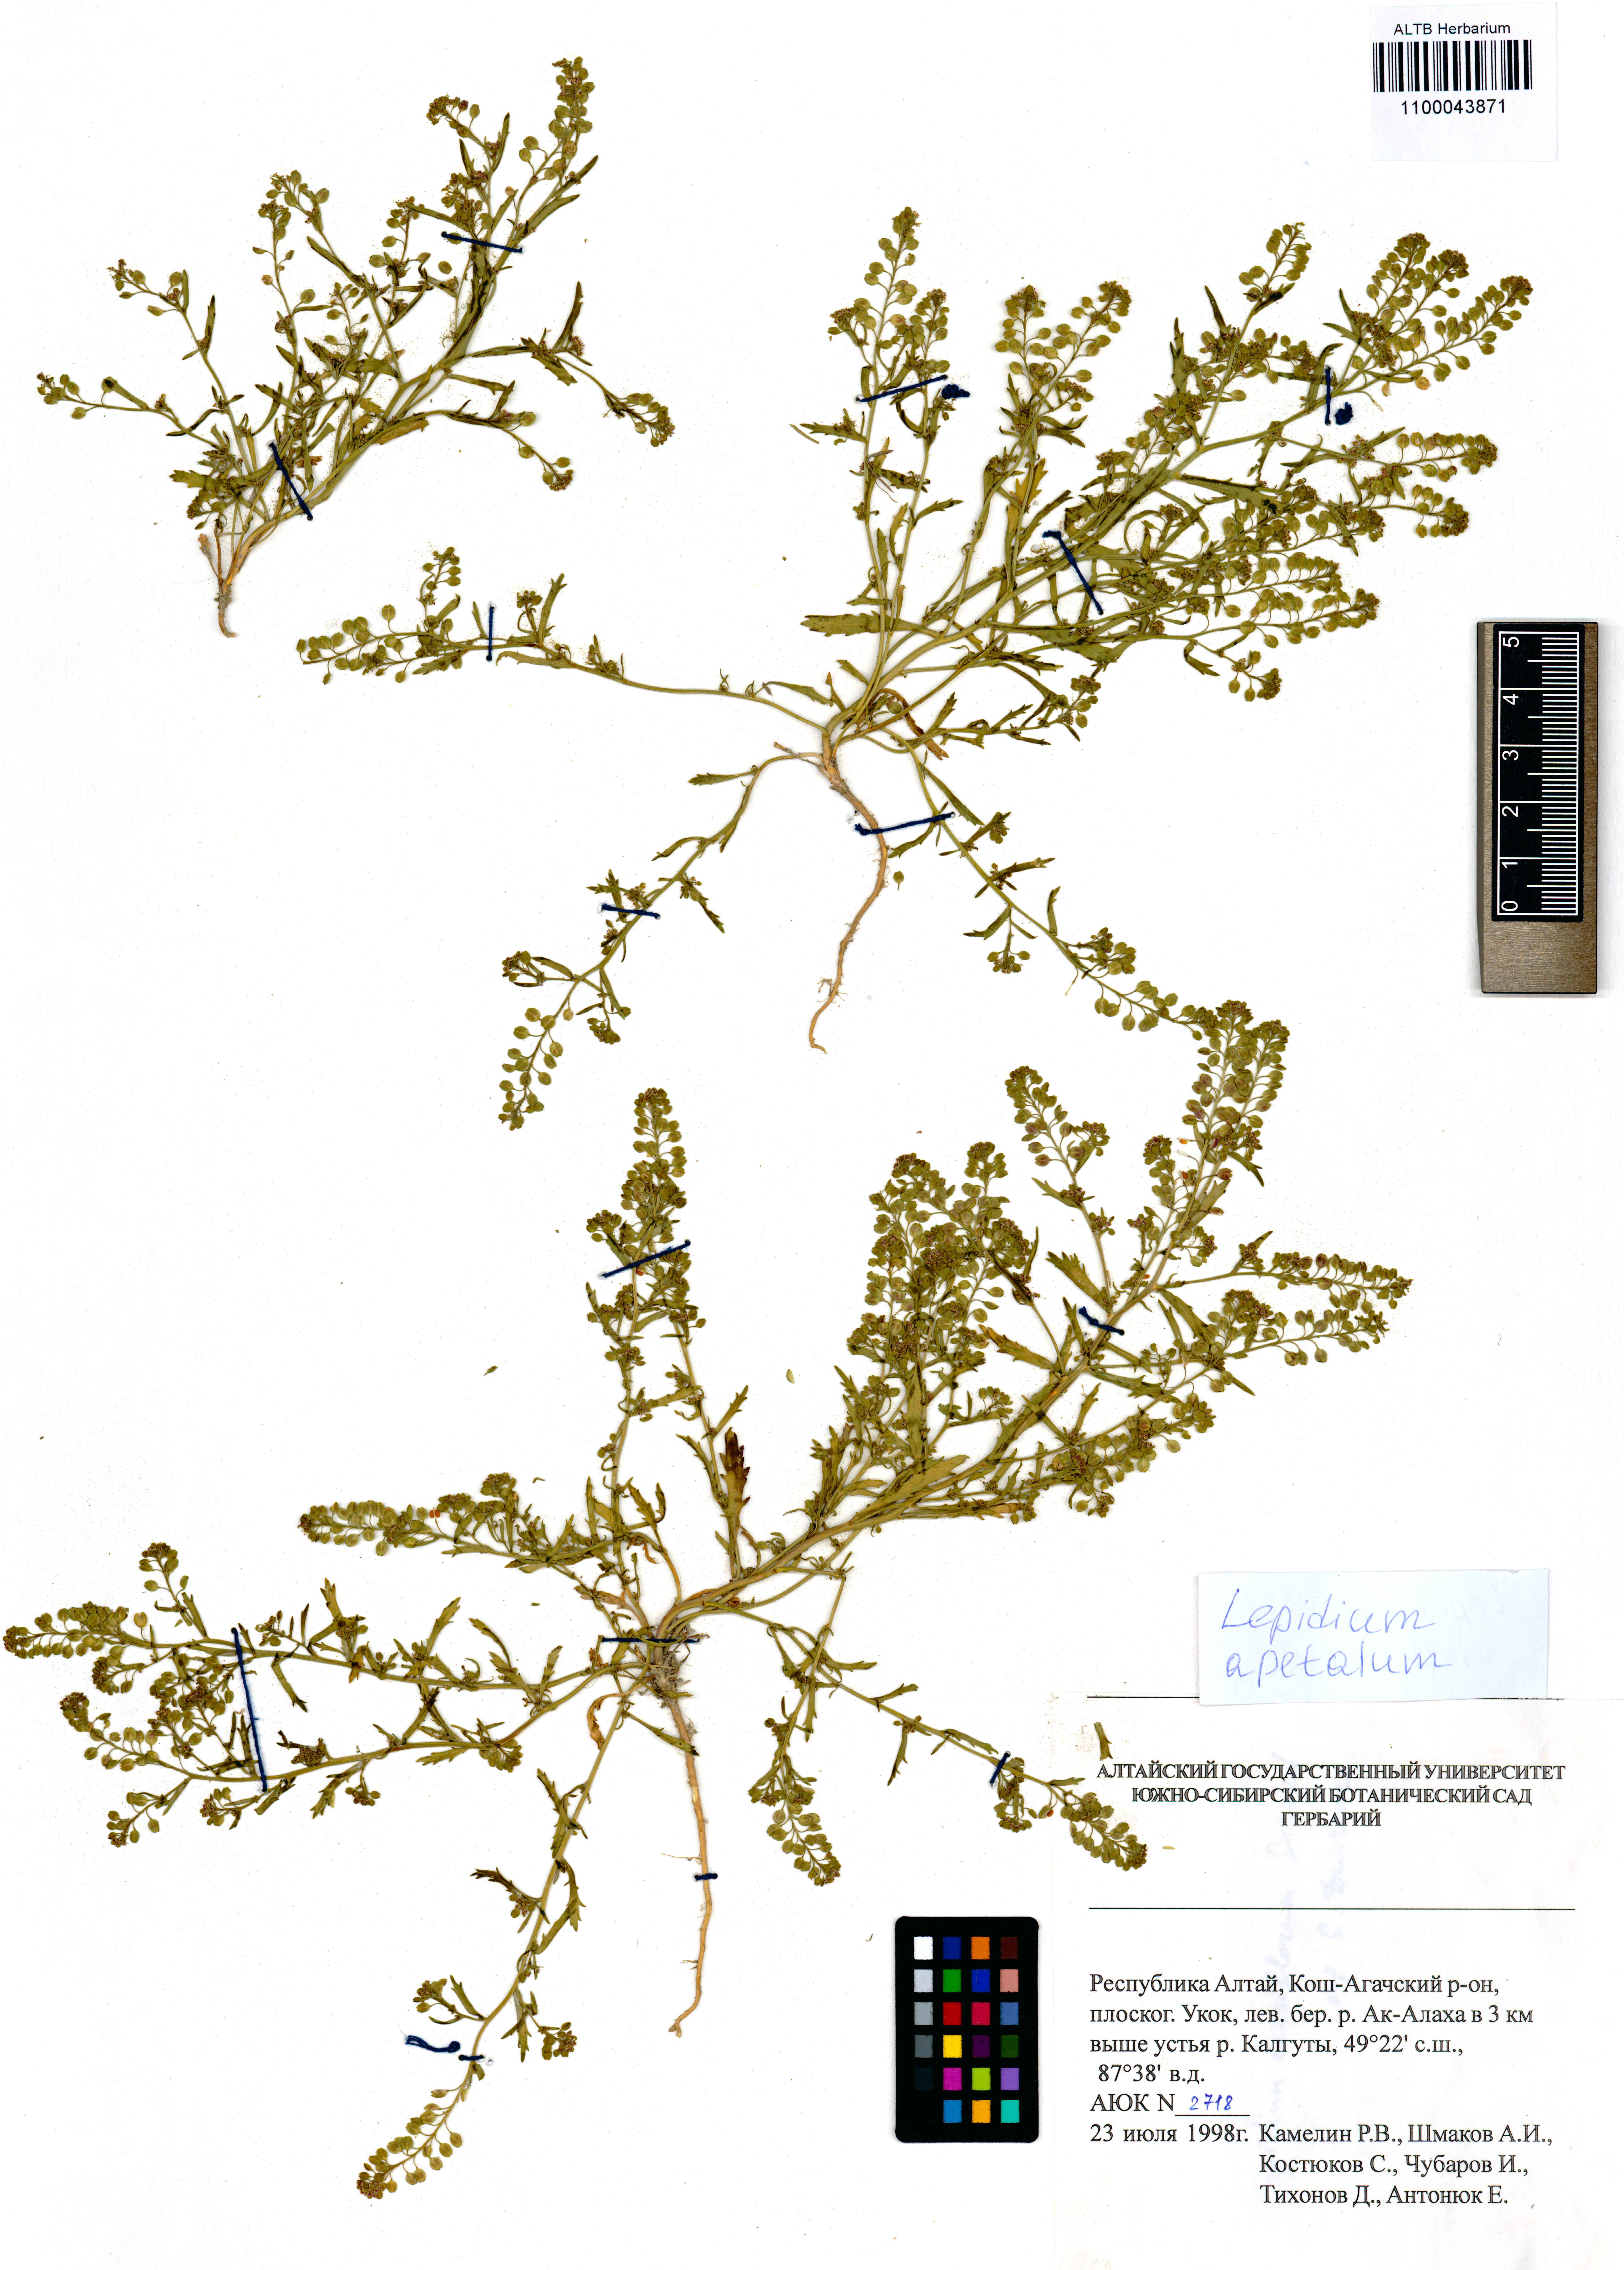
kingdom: Plantae
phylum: Tracheophyta
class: Magnoliopsida
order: Brassicales
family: Brassicaceae
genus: Lepidium
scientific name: Lepidium apetalum
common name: Pepperweed
